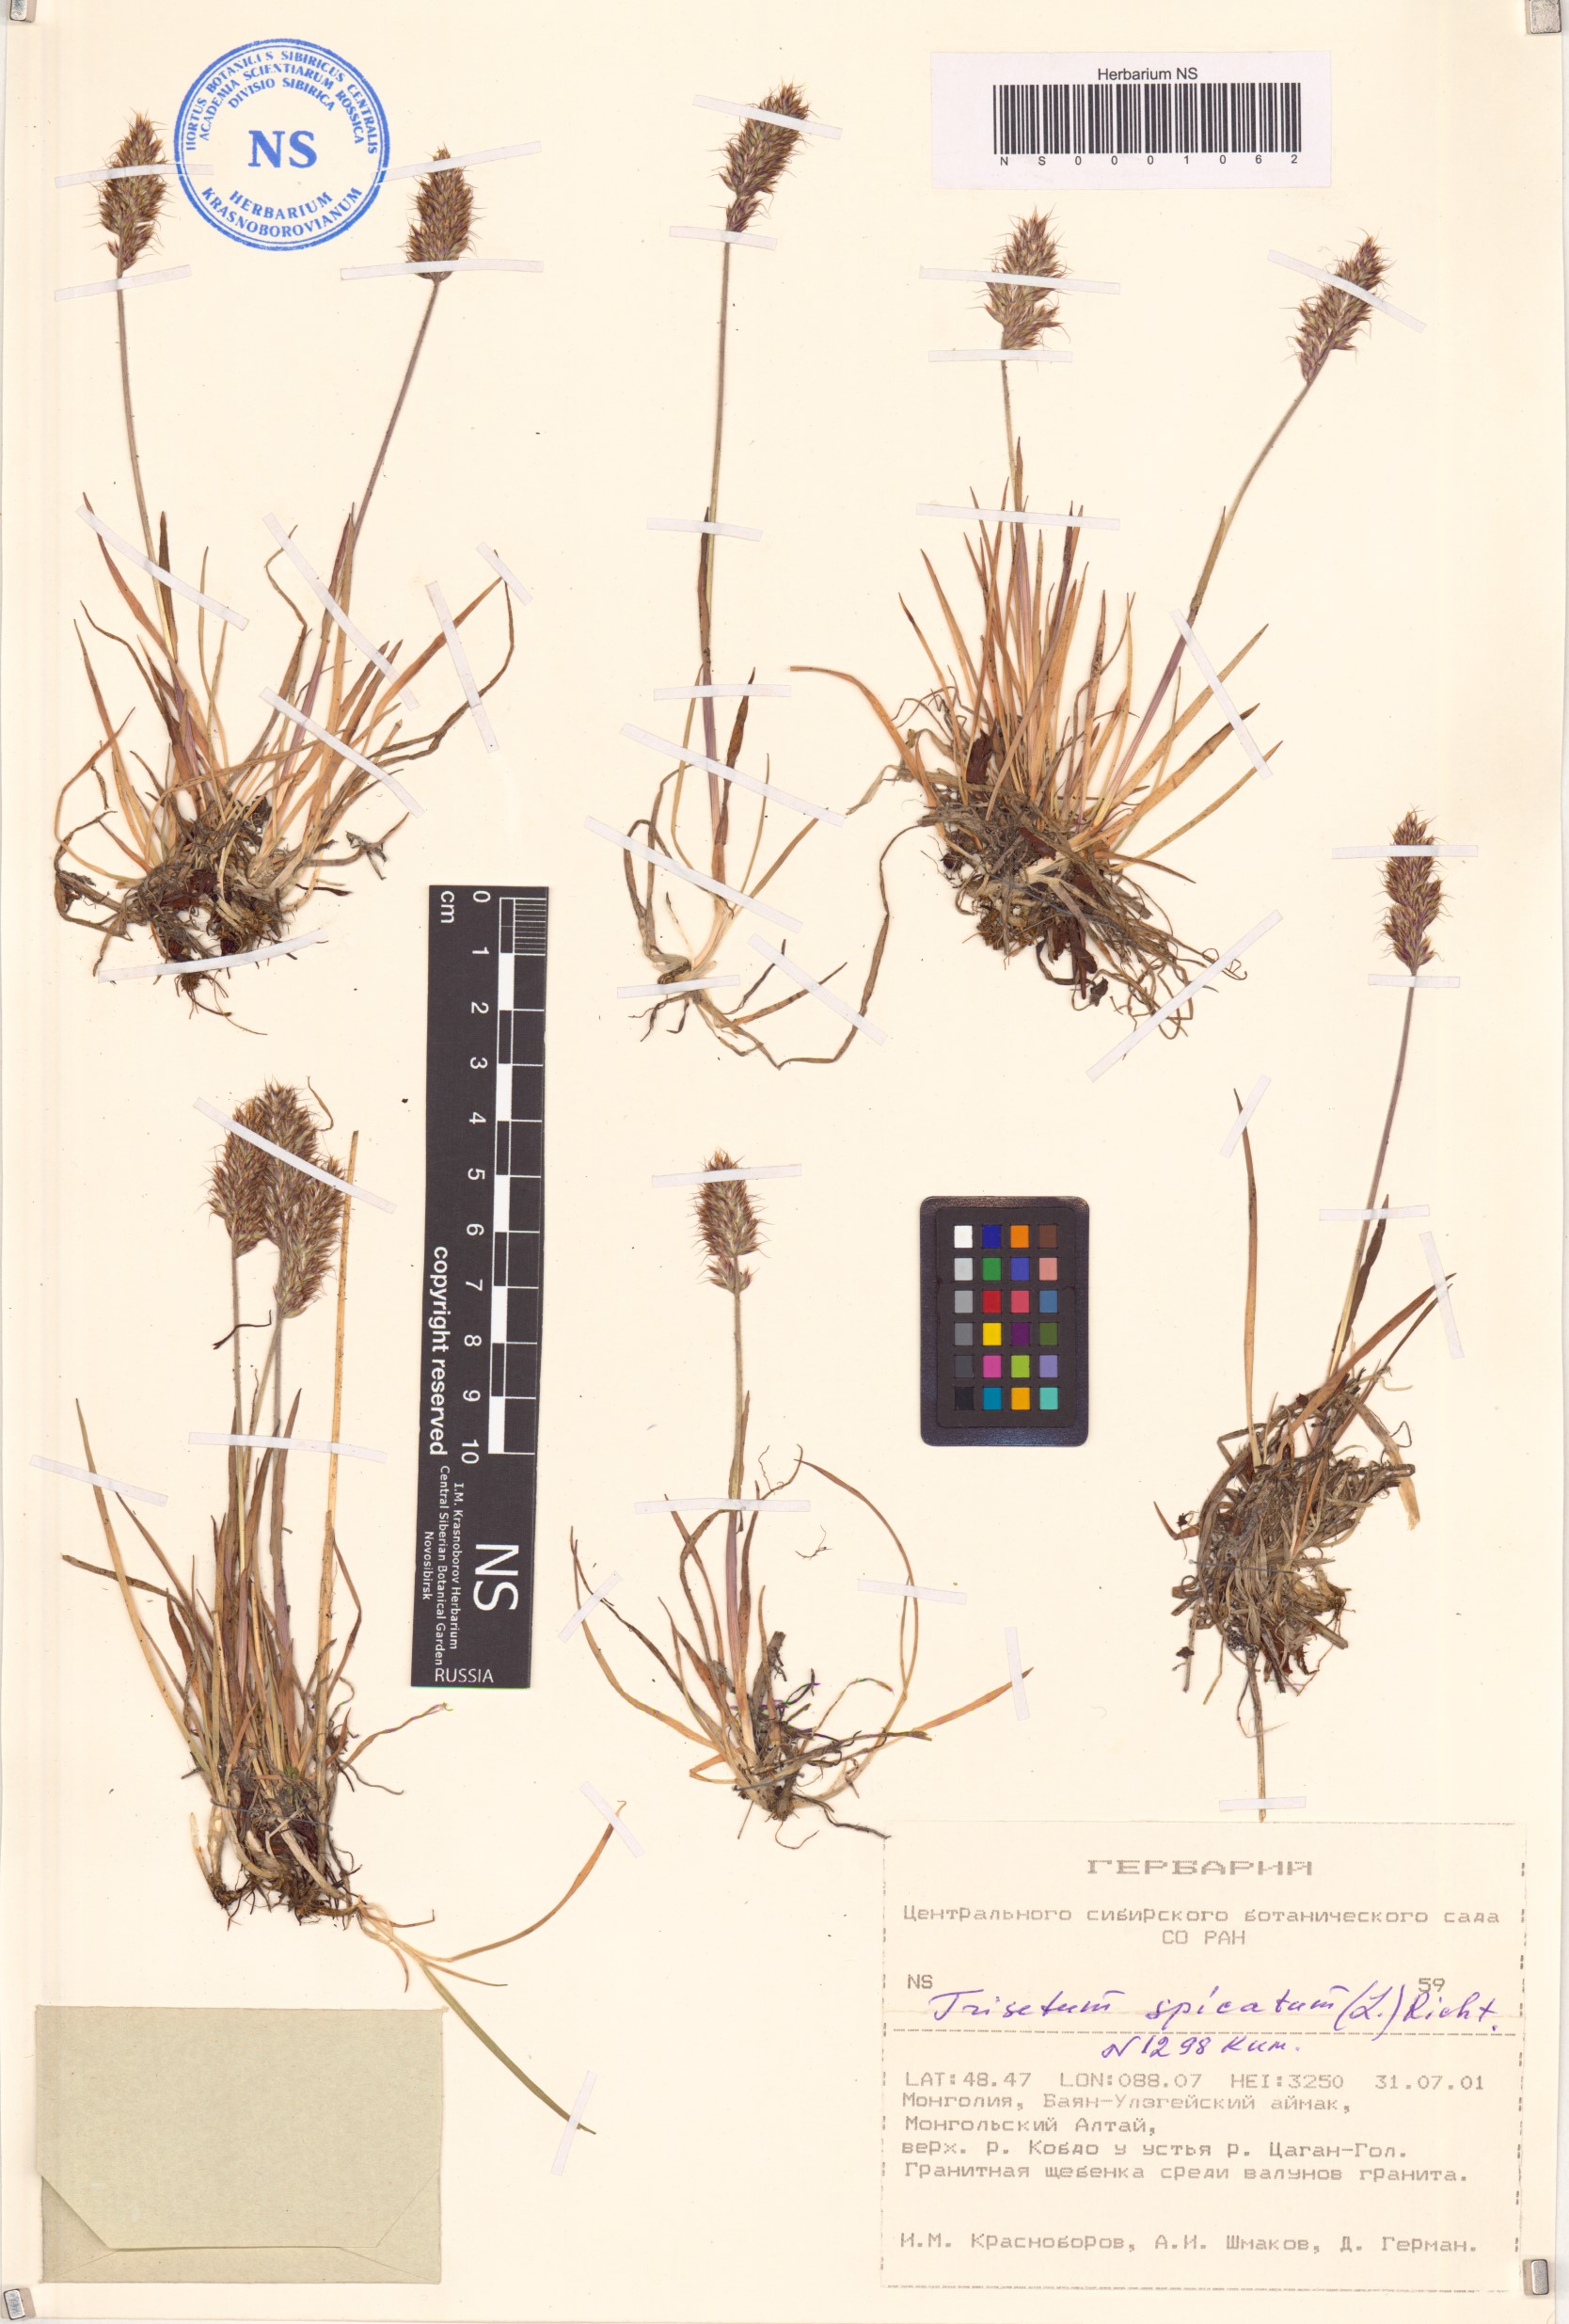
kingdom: Plantae
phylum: Tracheophyta
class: Liliopsida
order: Poales
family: Poaceae
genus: Koeleria
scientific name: Koeleria spicata
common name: Mountain trisetum
